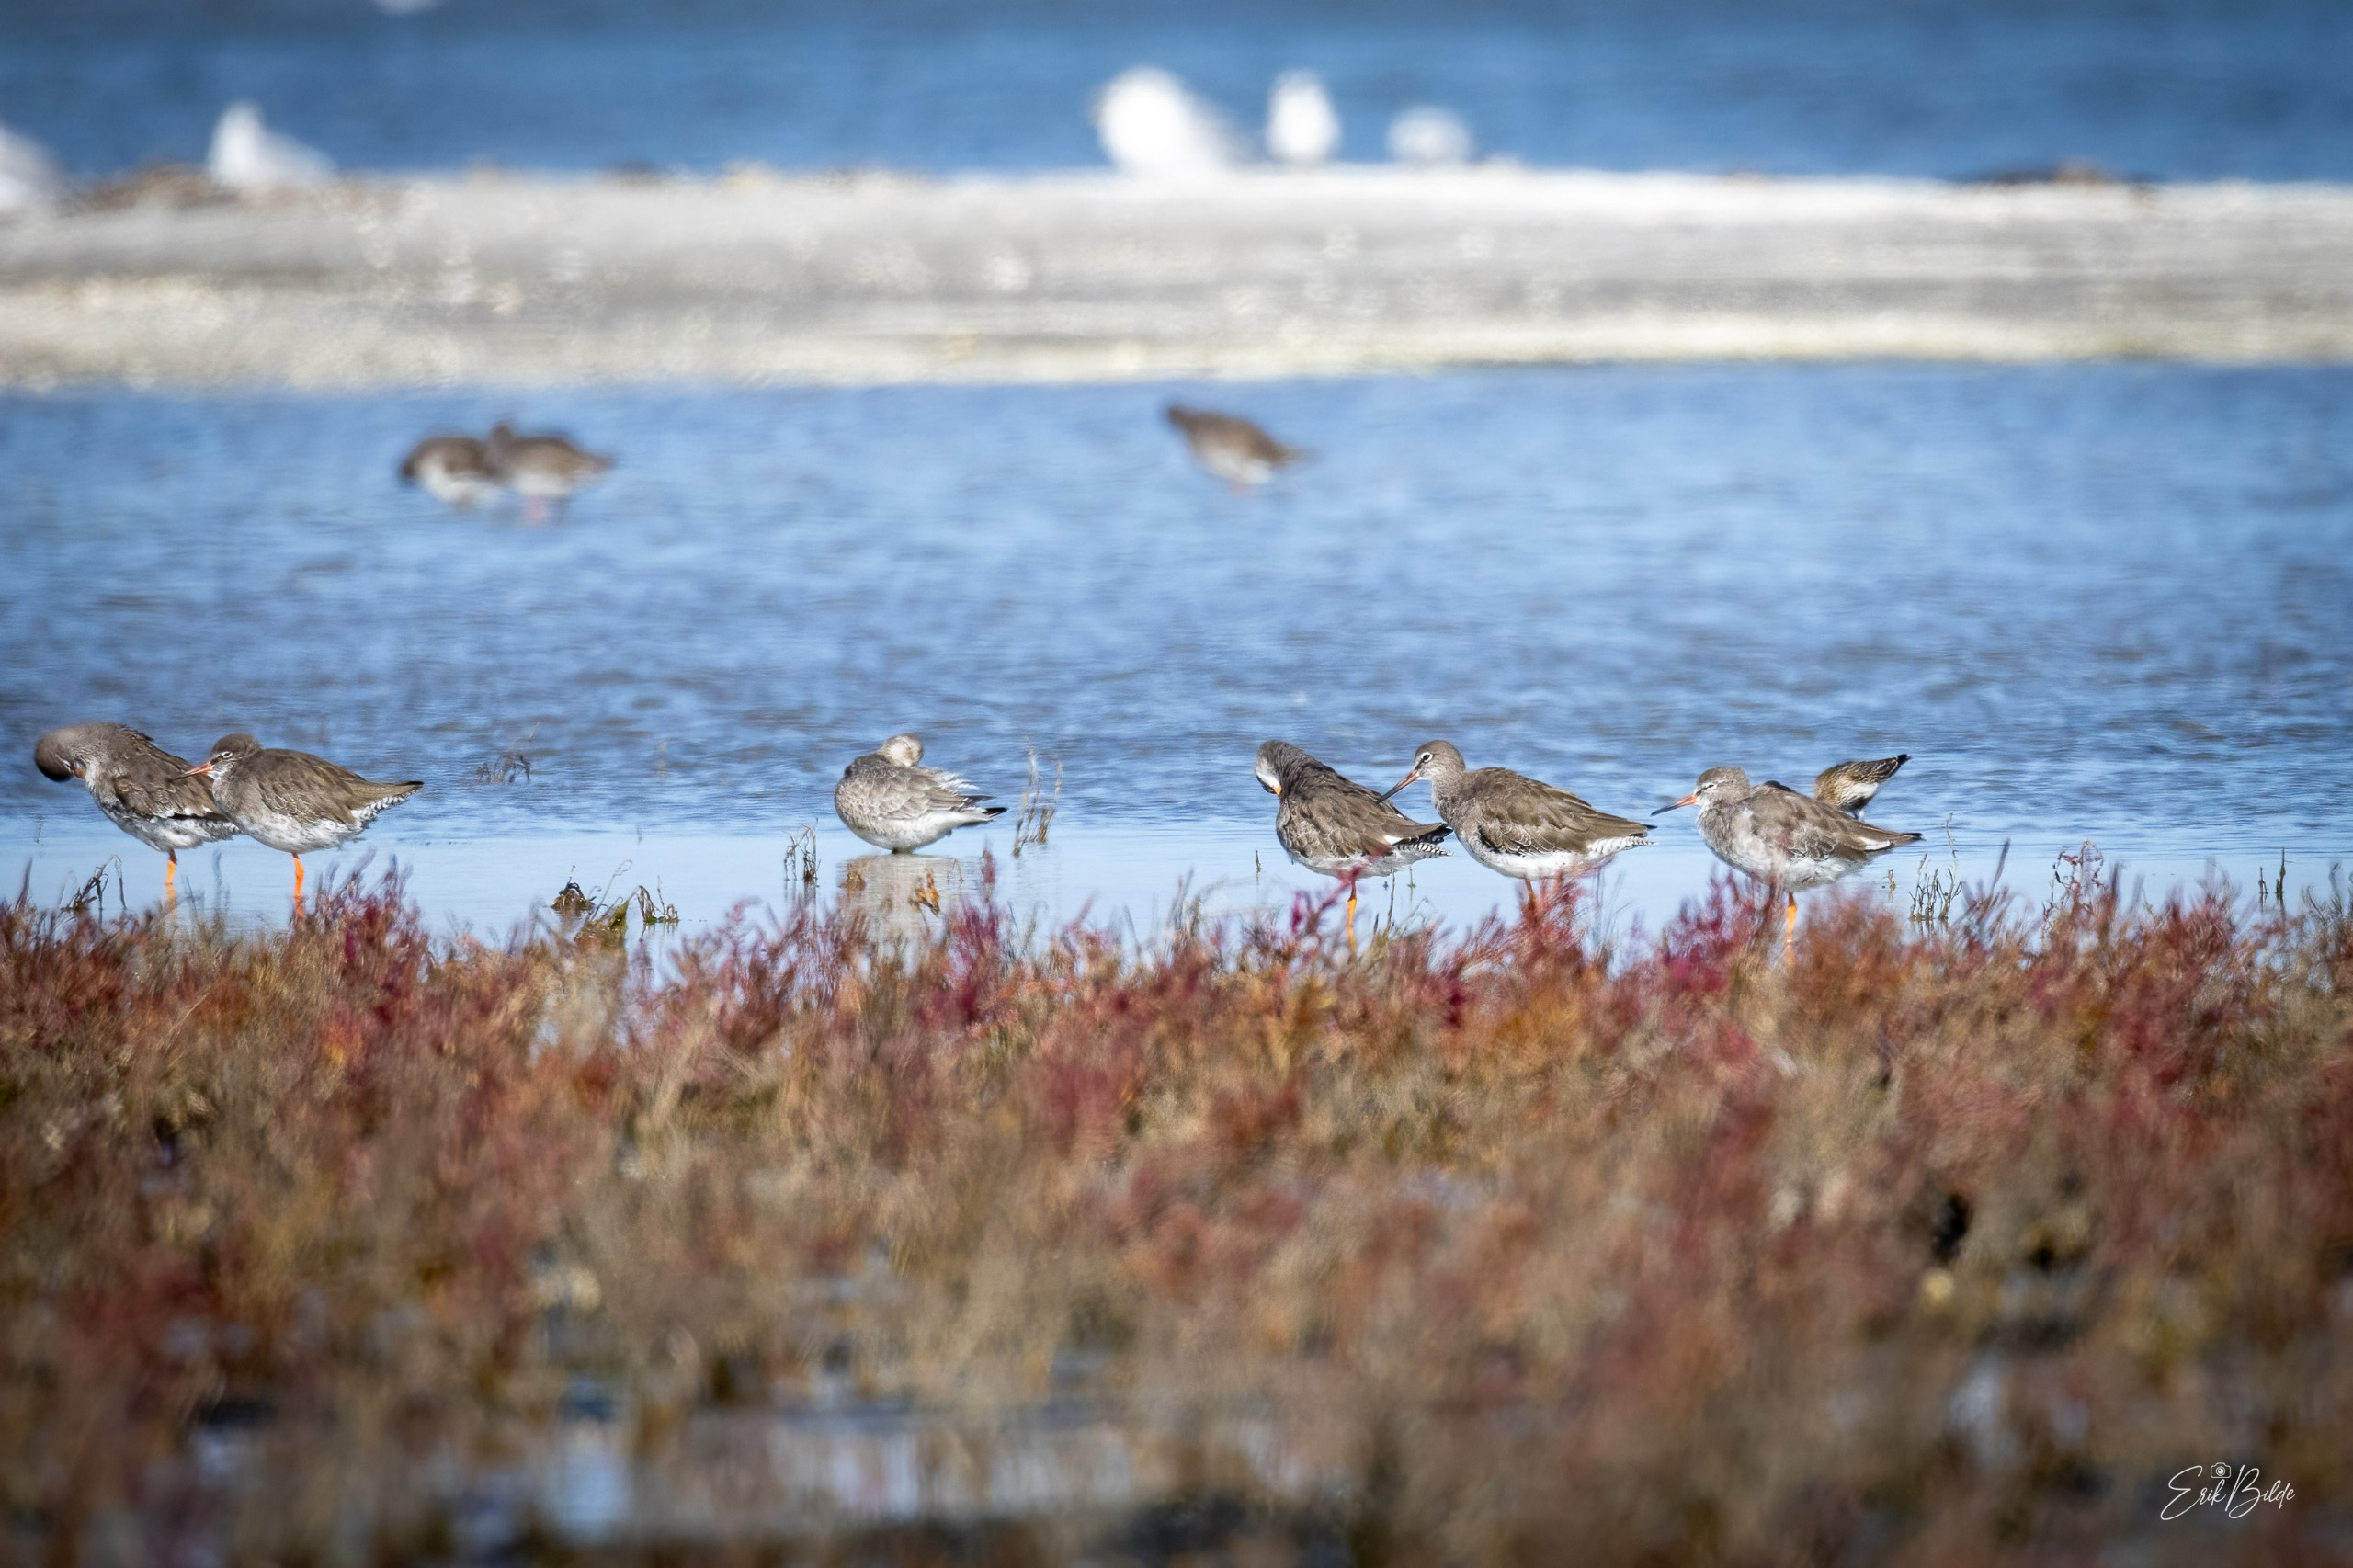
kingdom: Animalia
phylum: Chordata
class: Aves
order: Charadriiformes
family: Scolopacidae
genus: Tringa
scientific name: Tringa totanus
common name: Rødben
